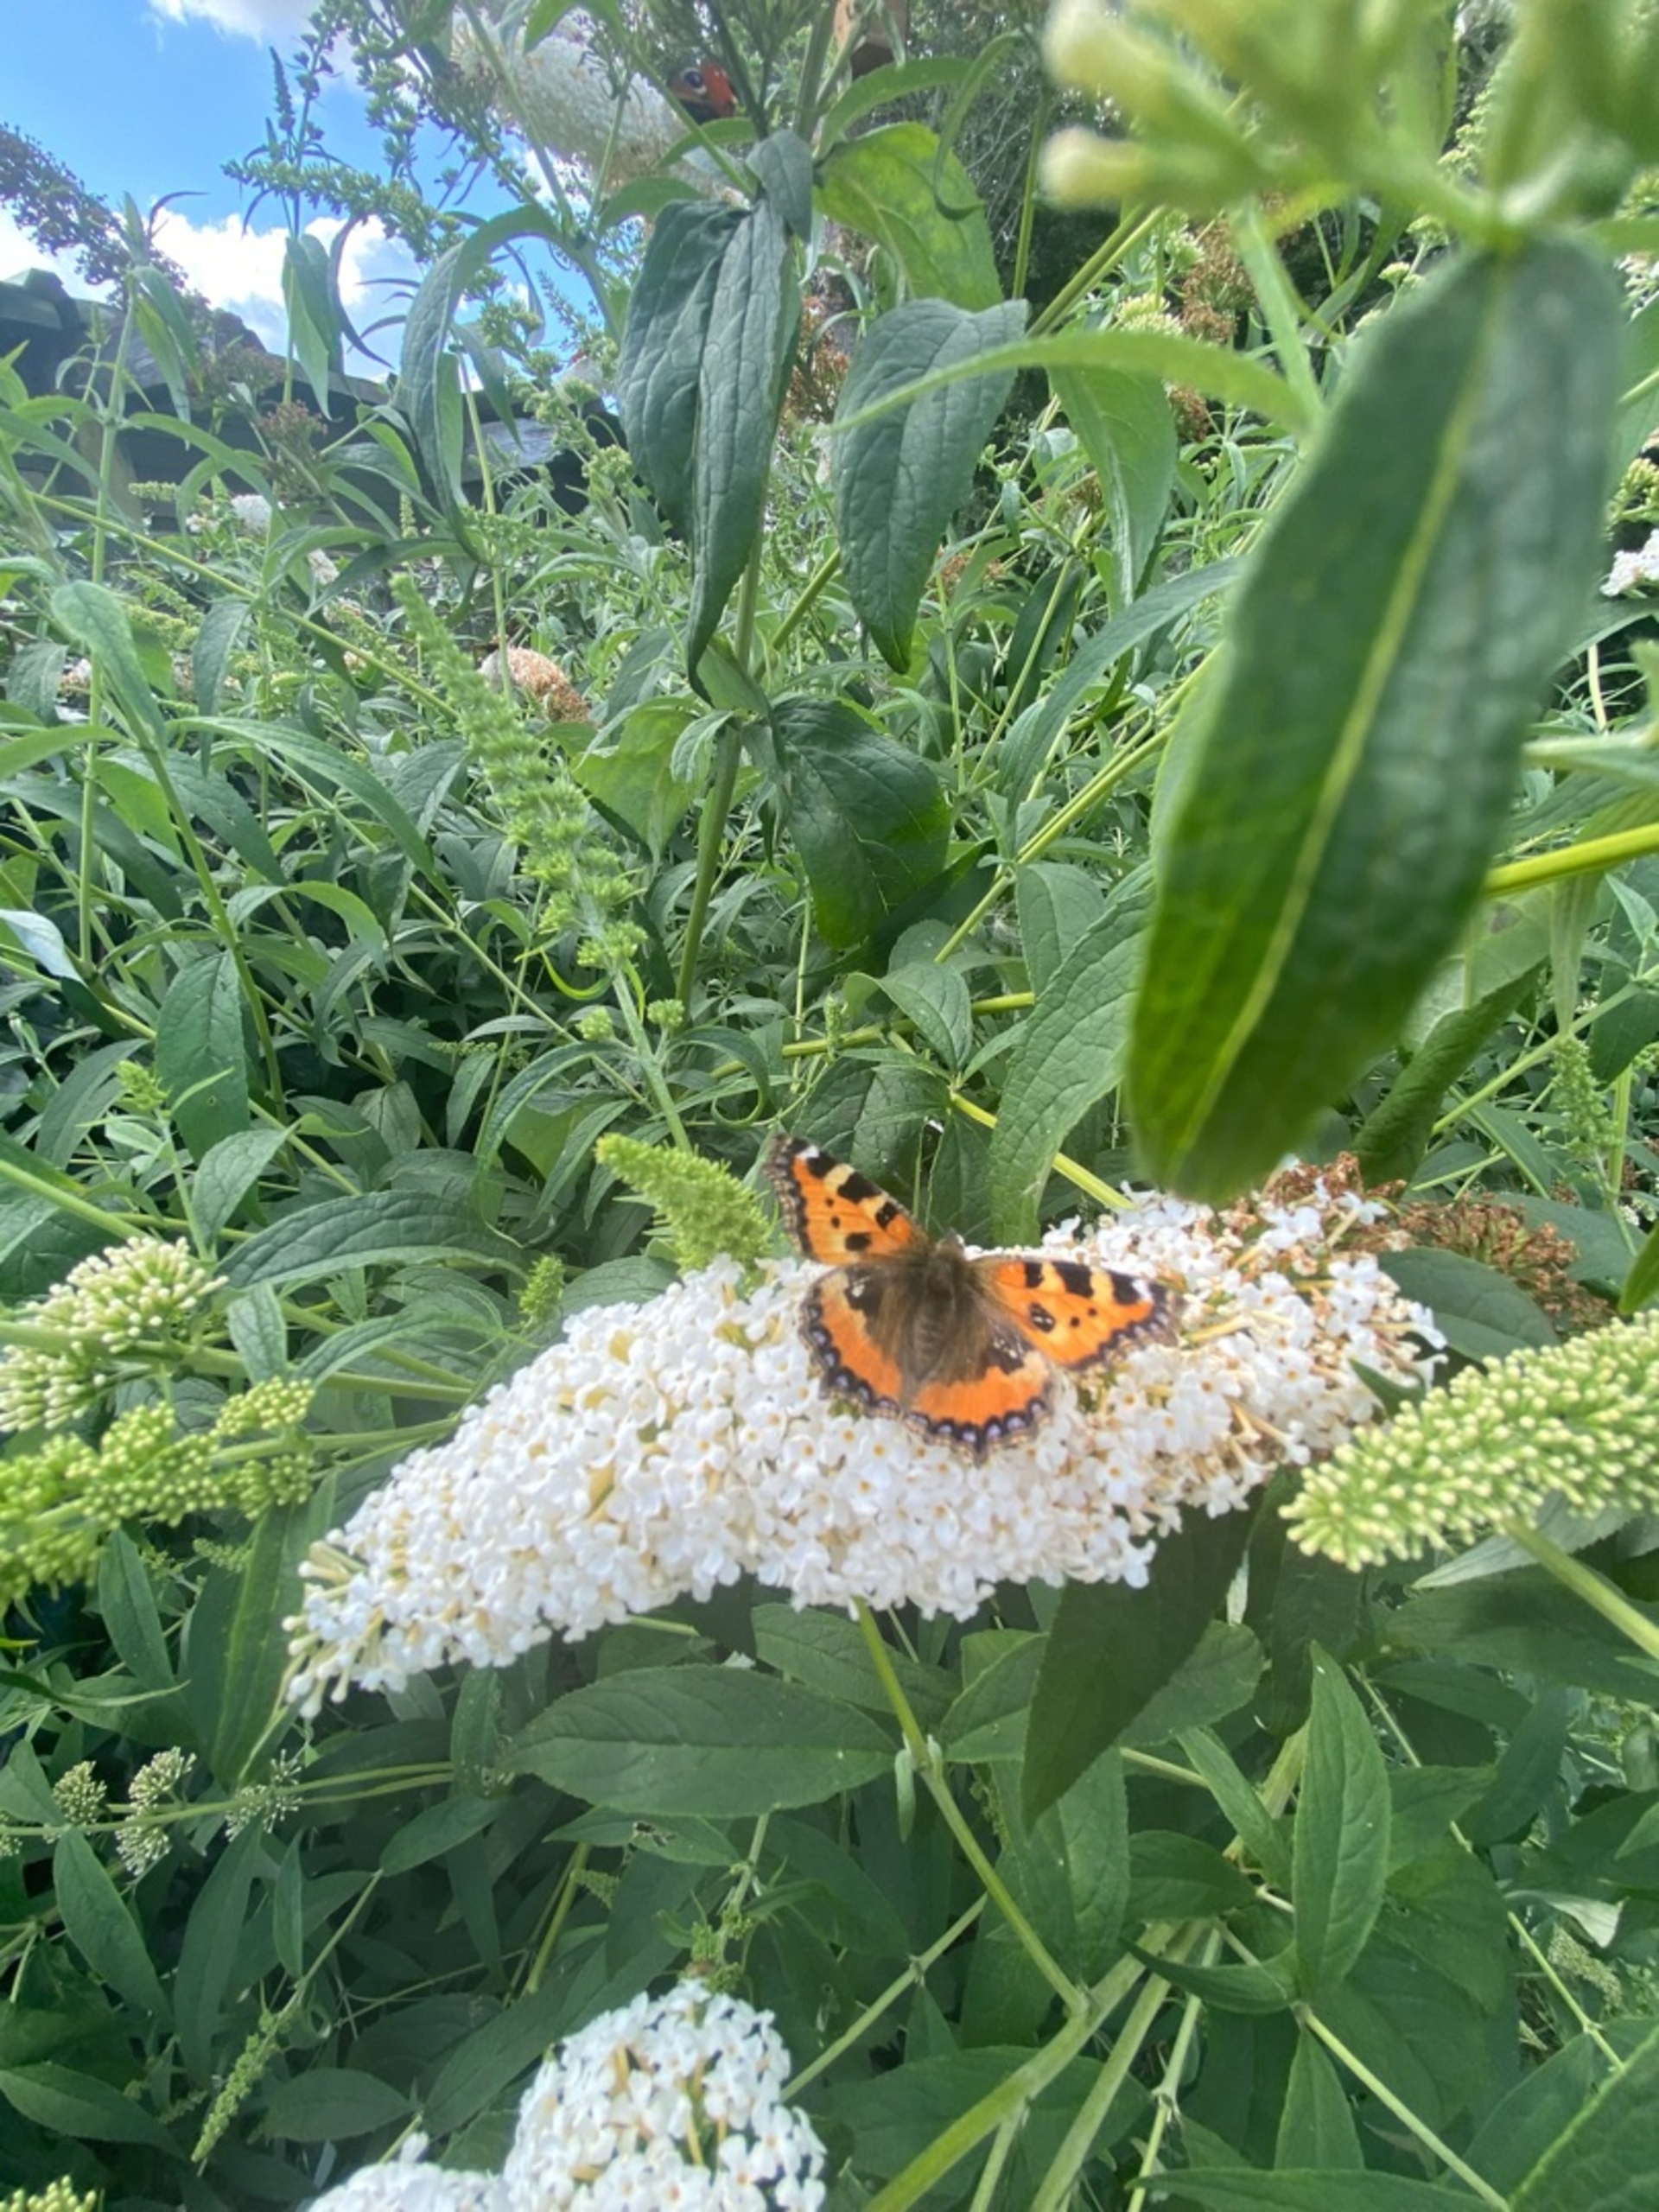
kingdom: Animalia
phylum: Arthropoda
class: Insecta
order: Lepidoptera
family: Nymphalidae
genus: Aglais
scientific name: Aglais urticae
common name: Nældens takvinge
